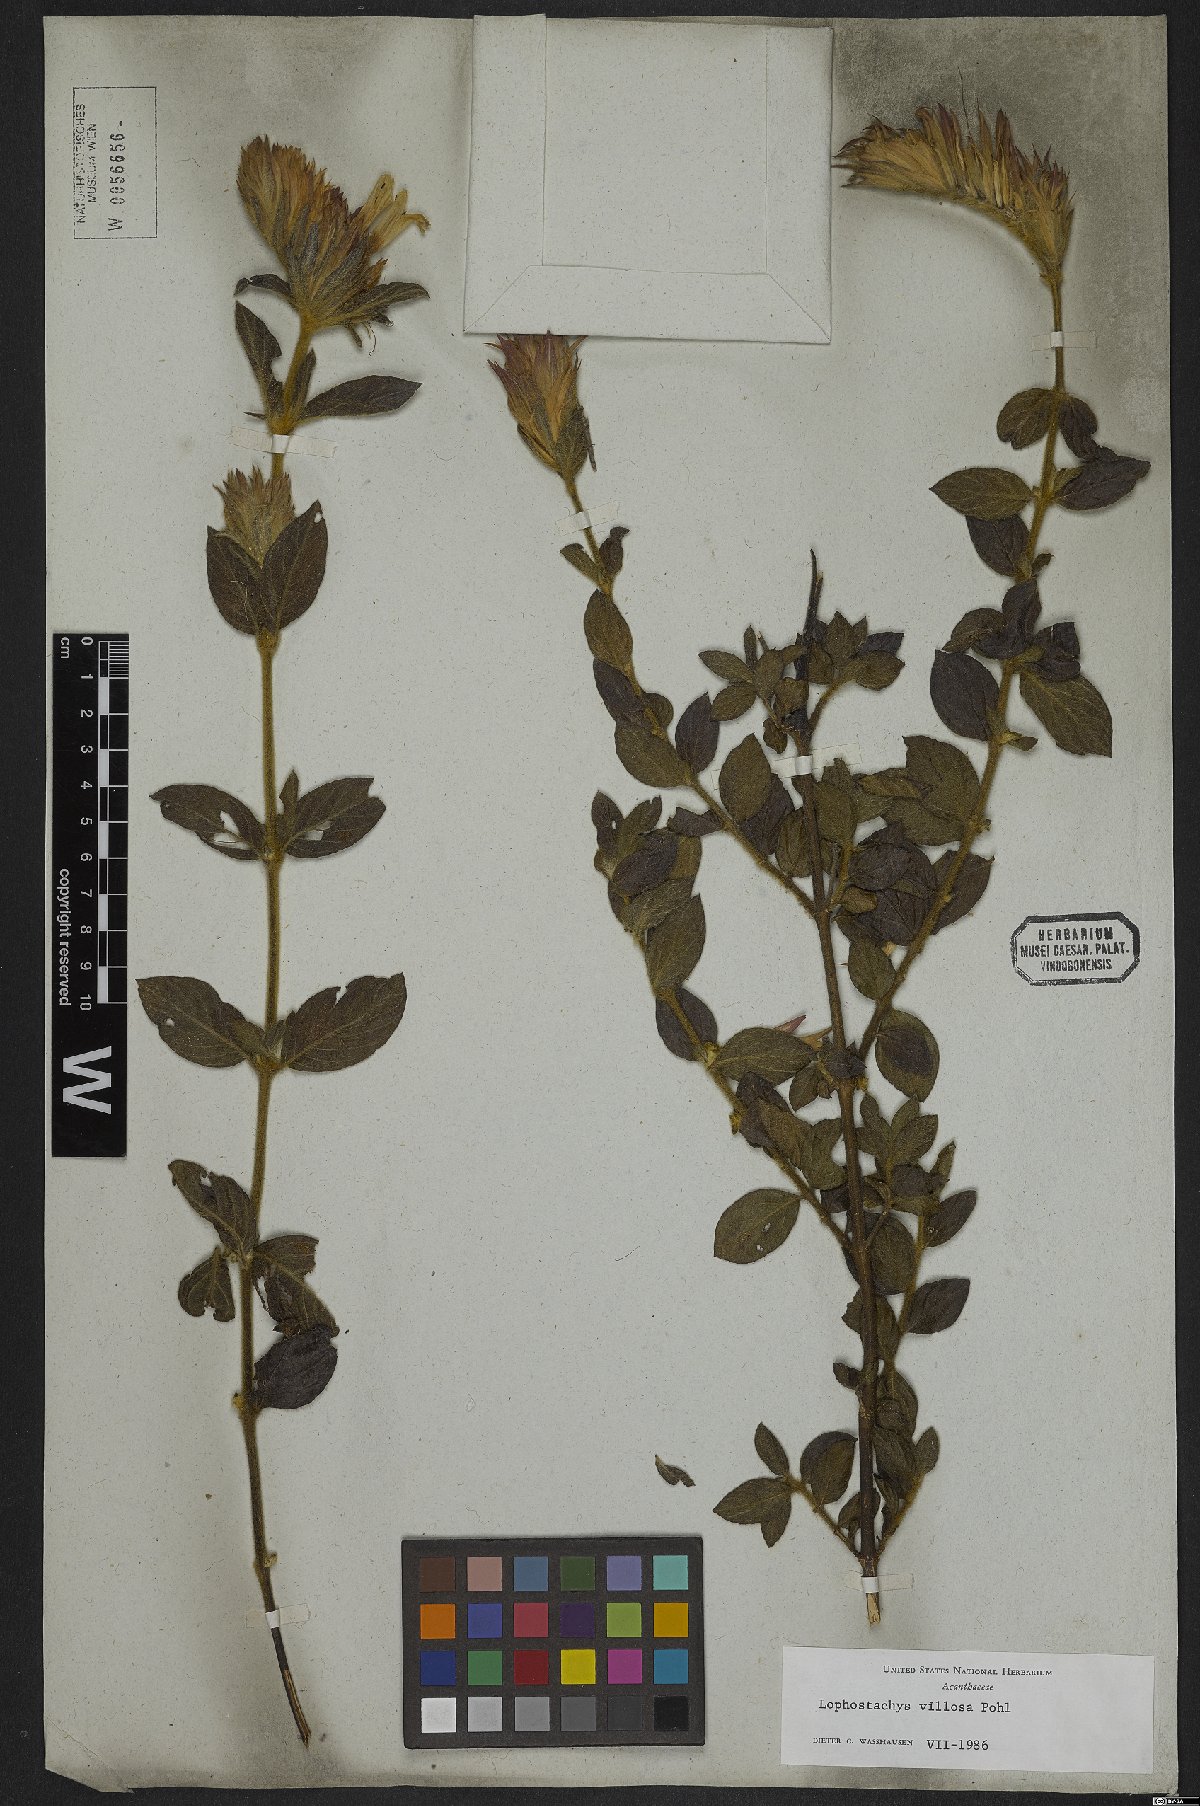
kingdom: Plantae
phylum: Tracheophyta
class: Magnoliopsida
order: Lamiales
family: Acanthaceae
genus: Lepidagathis
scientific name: Lepidagathis montana
